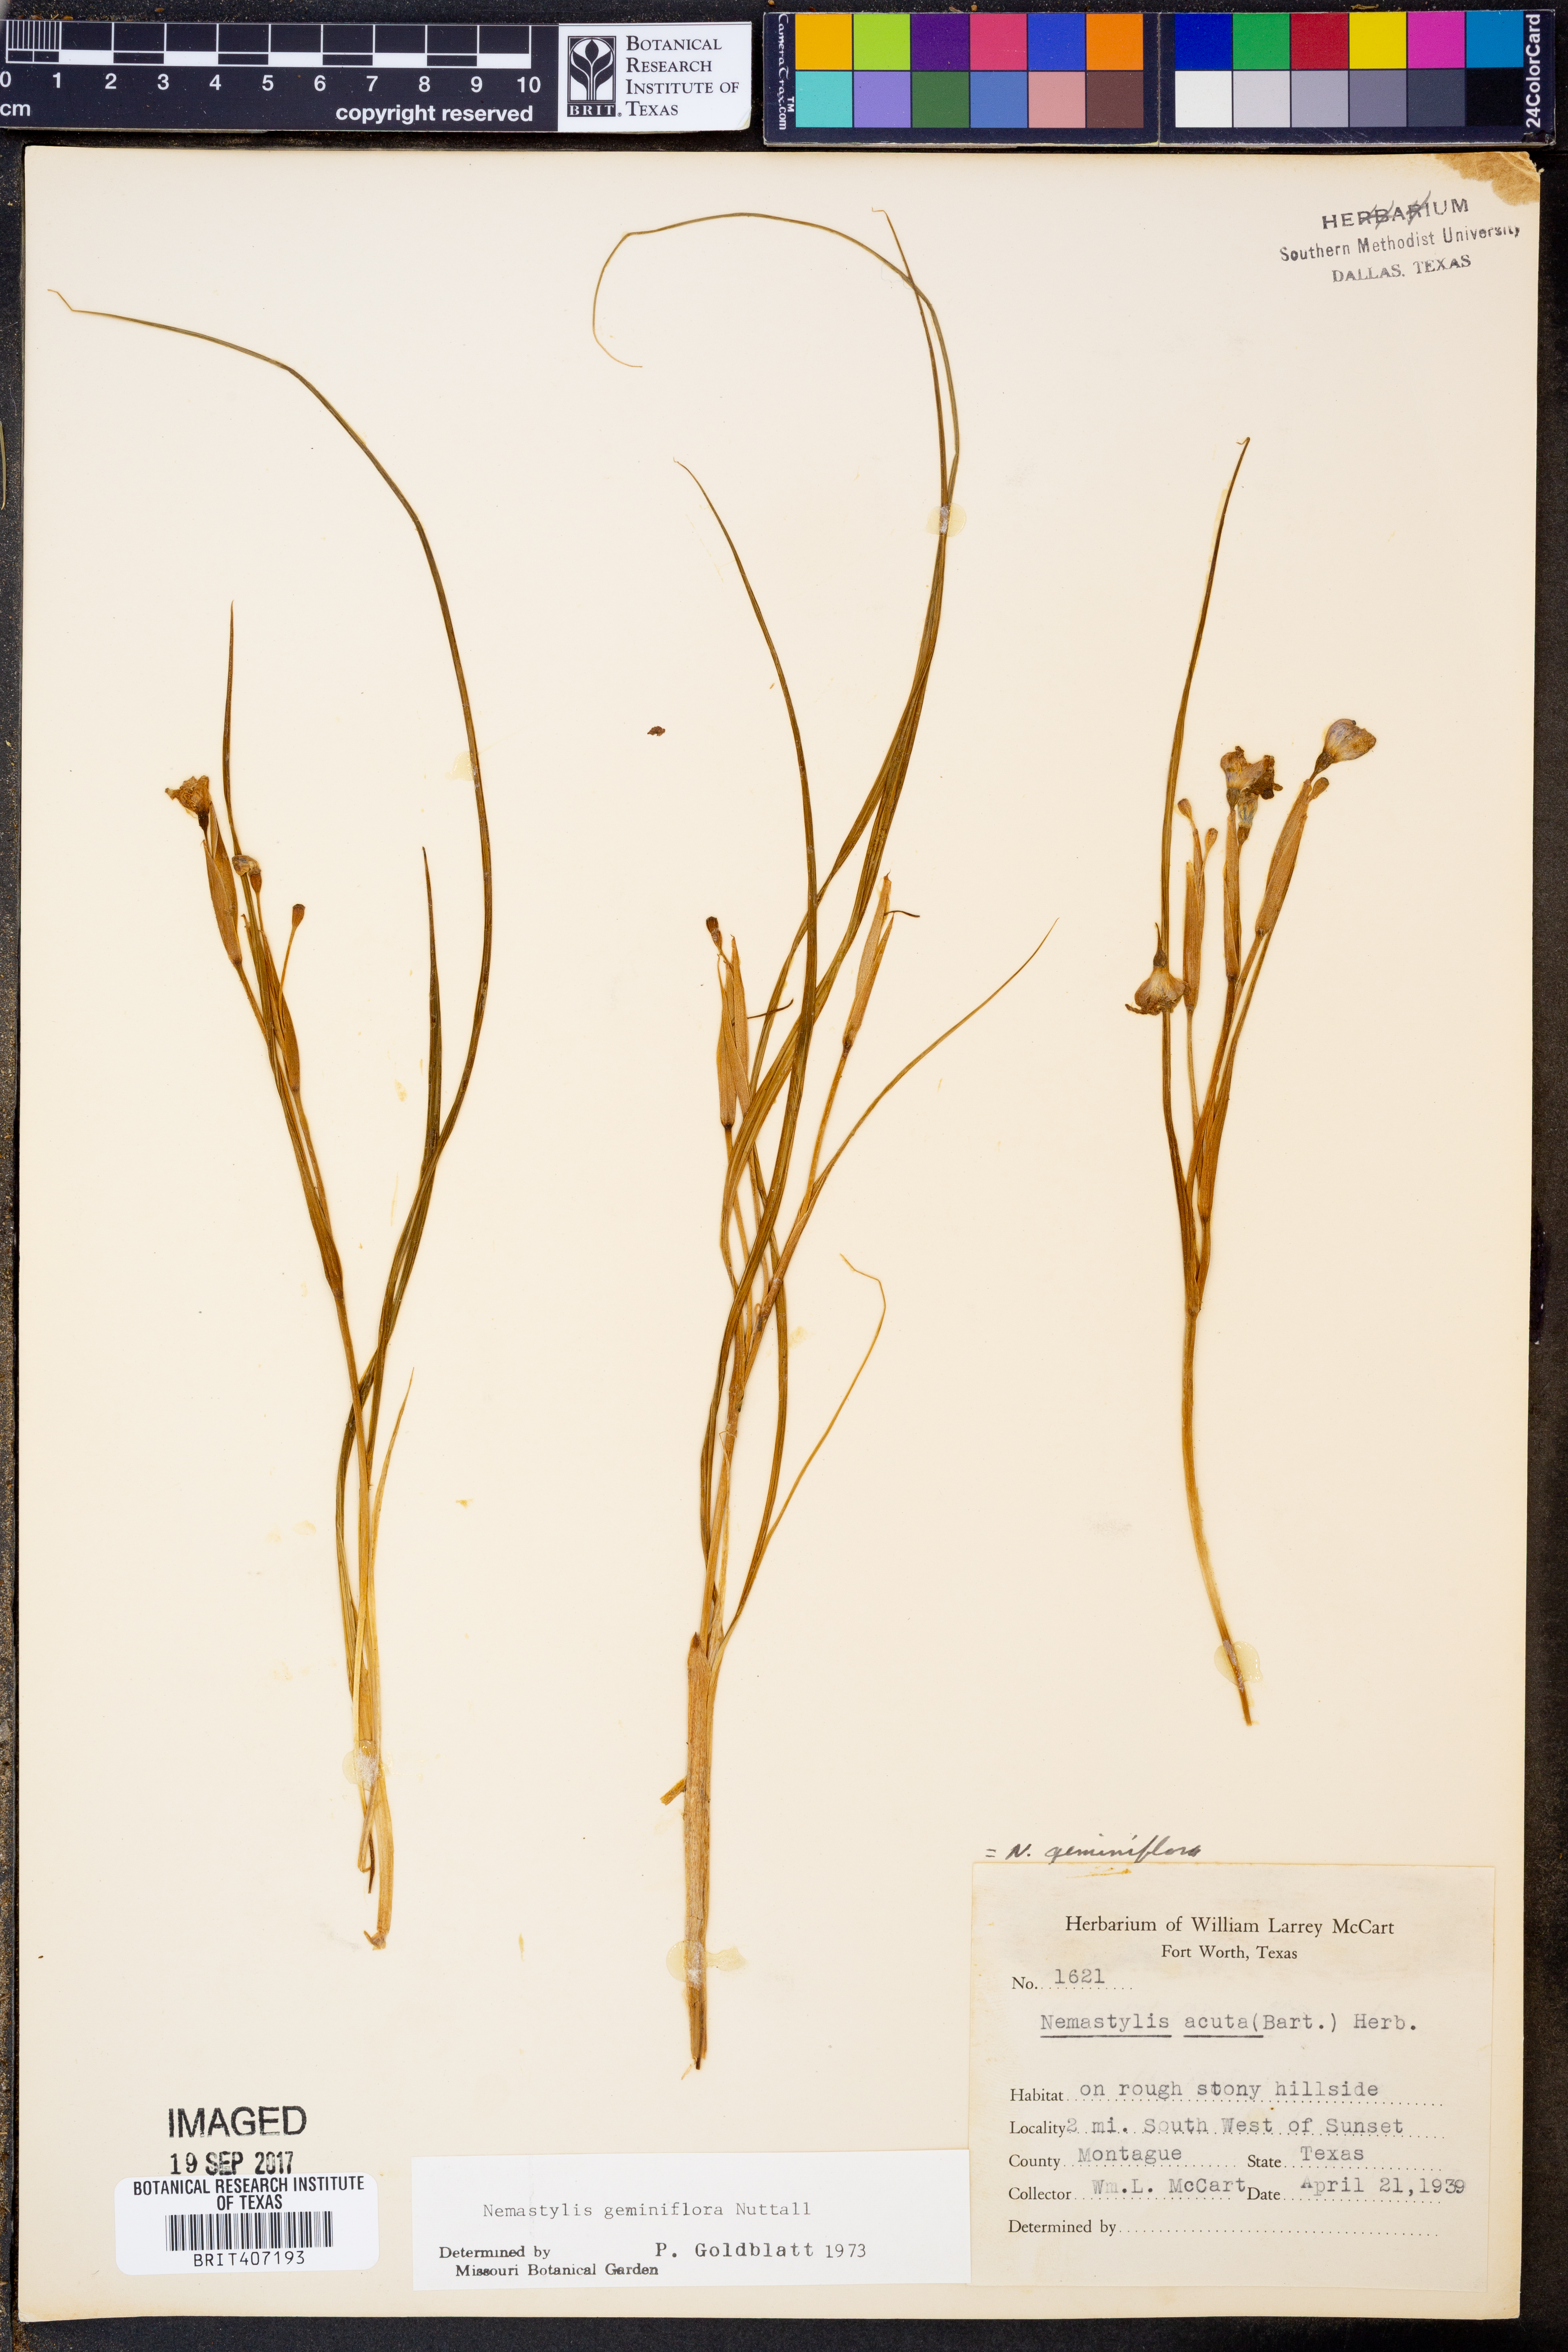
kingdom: Plantae
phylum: Tracheophyta
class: Liliopsida
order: Asparagales
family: Iridaceae
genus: Nemastylis
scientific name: Nemastylis geminiflora
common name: Prairie celestial
